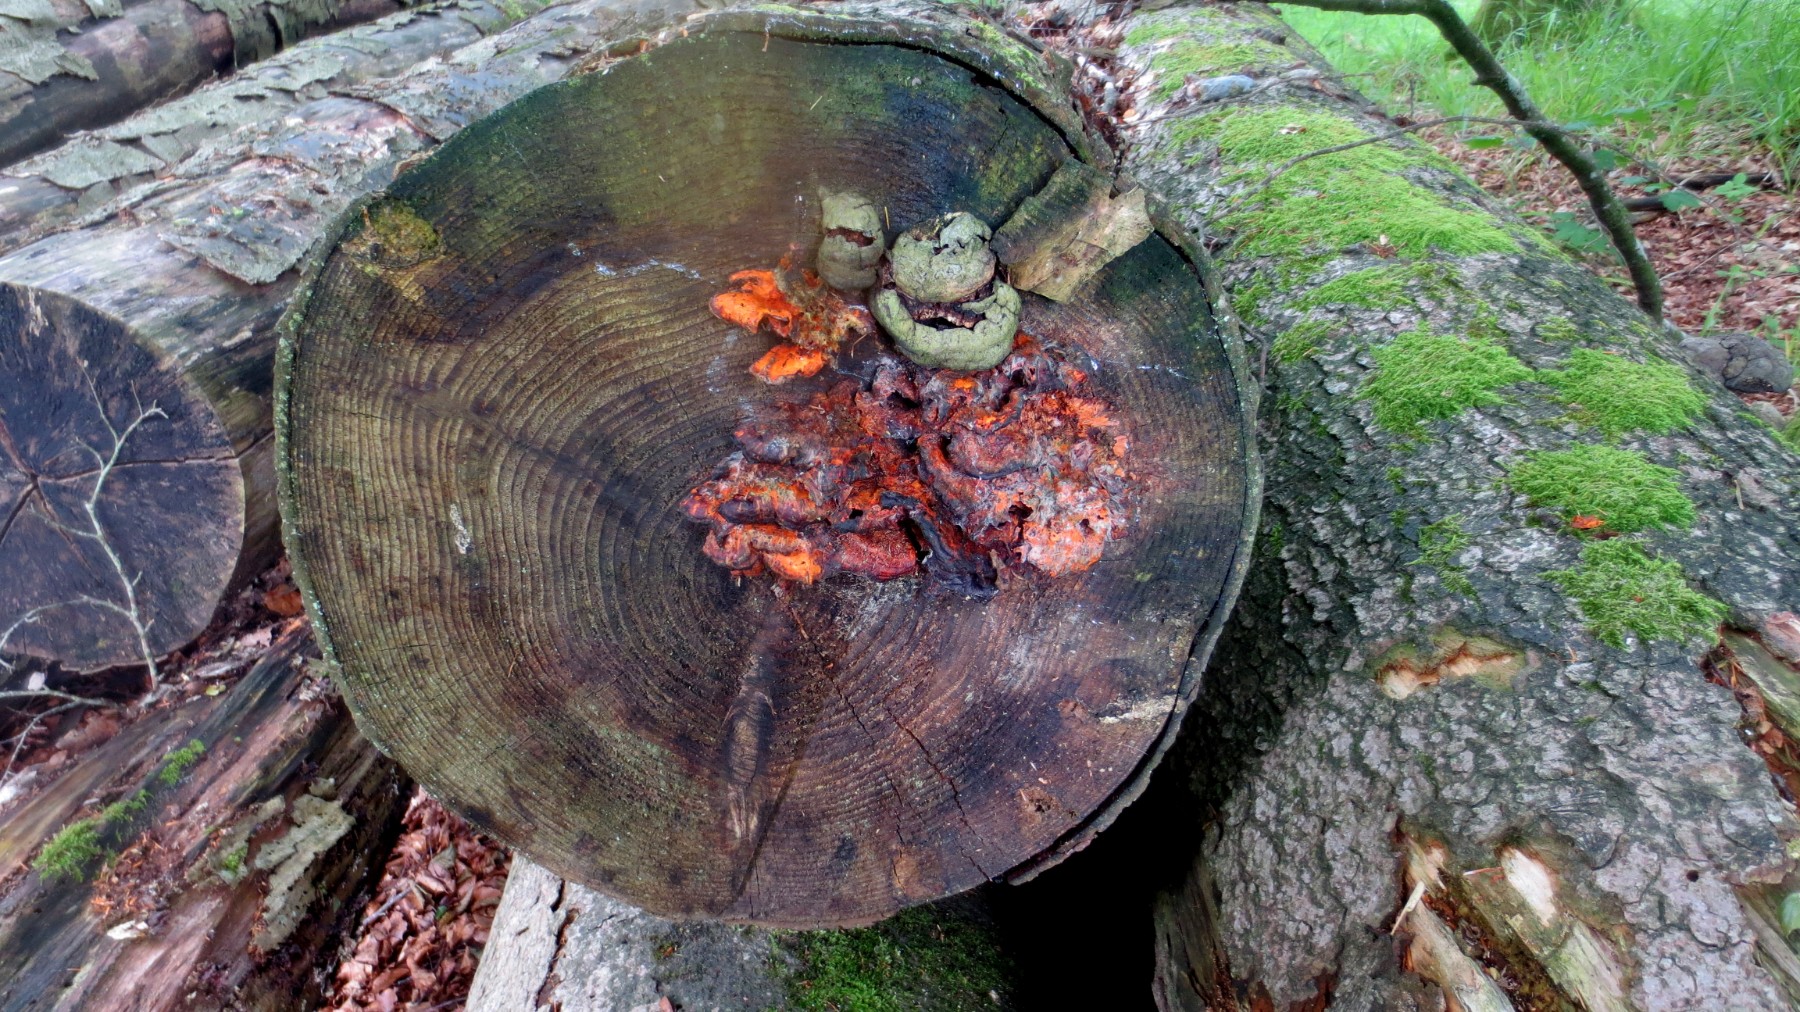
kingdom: Fungi
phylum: Basidiomycota
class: Agaricomycetes
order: Polyporales
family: Pycnoporellaceae
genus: Pycnoporellus
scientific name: Pycnoporellus fulgens
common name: flammeporesvamp
